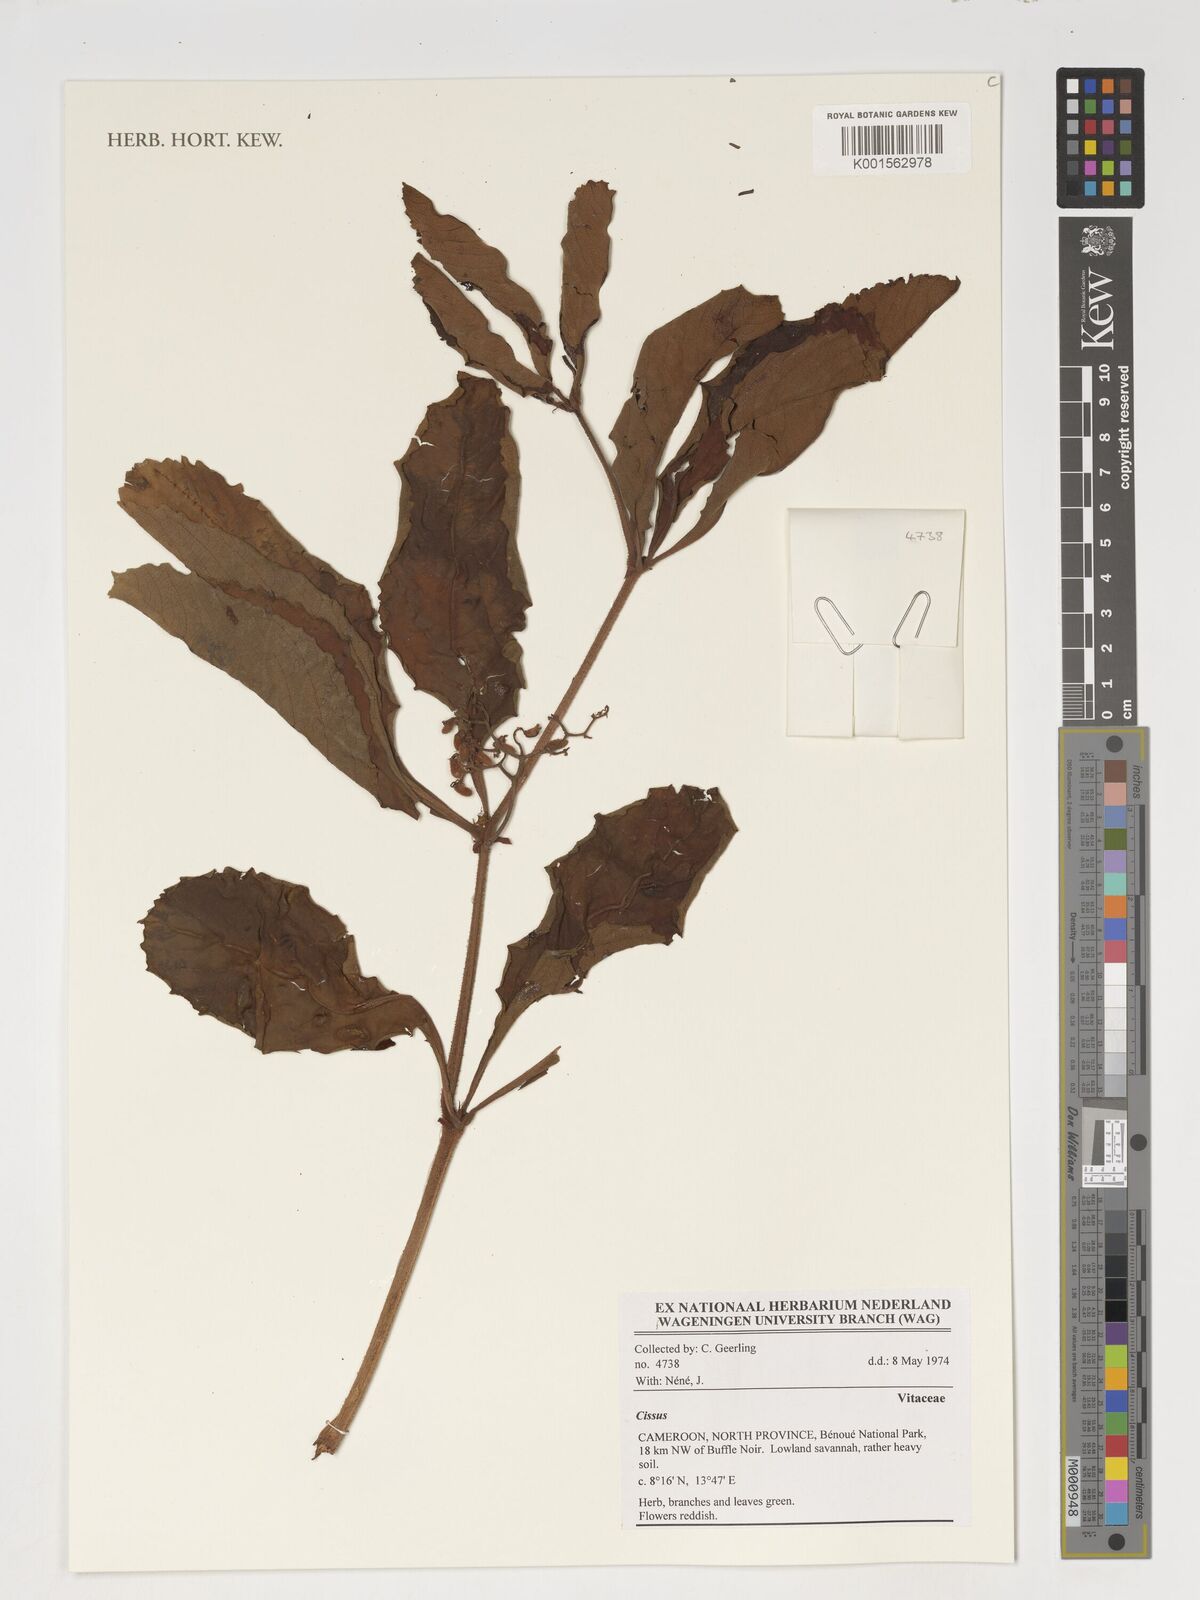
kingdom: Plantae
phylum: Tracheophyta
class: Magnoliopsida
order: Vitales
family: Vitaceae
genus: Cissus
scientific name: Cissus
